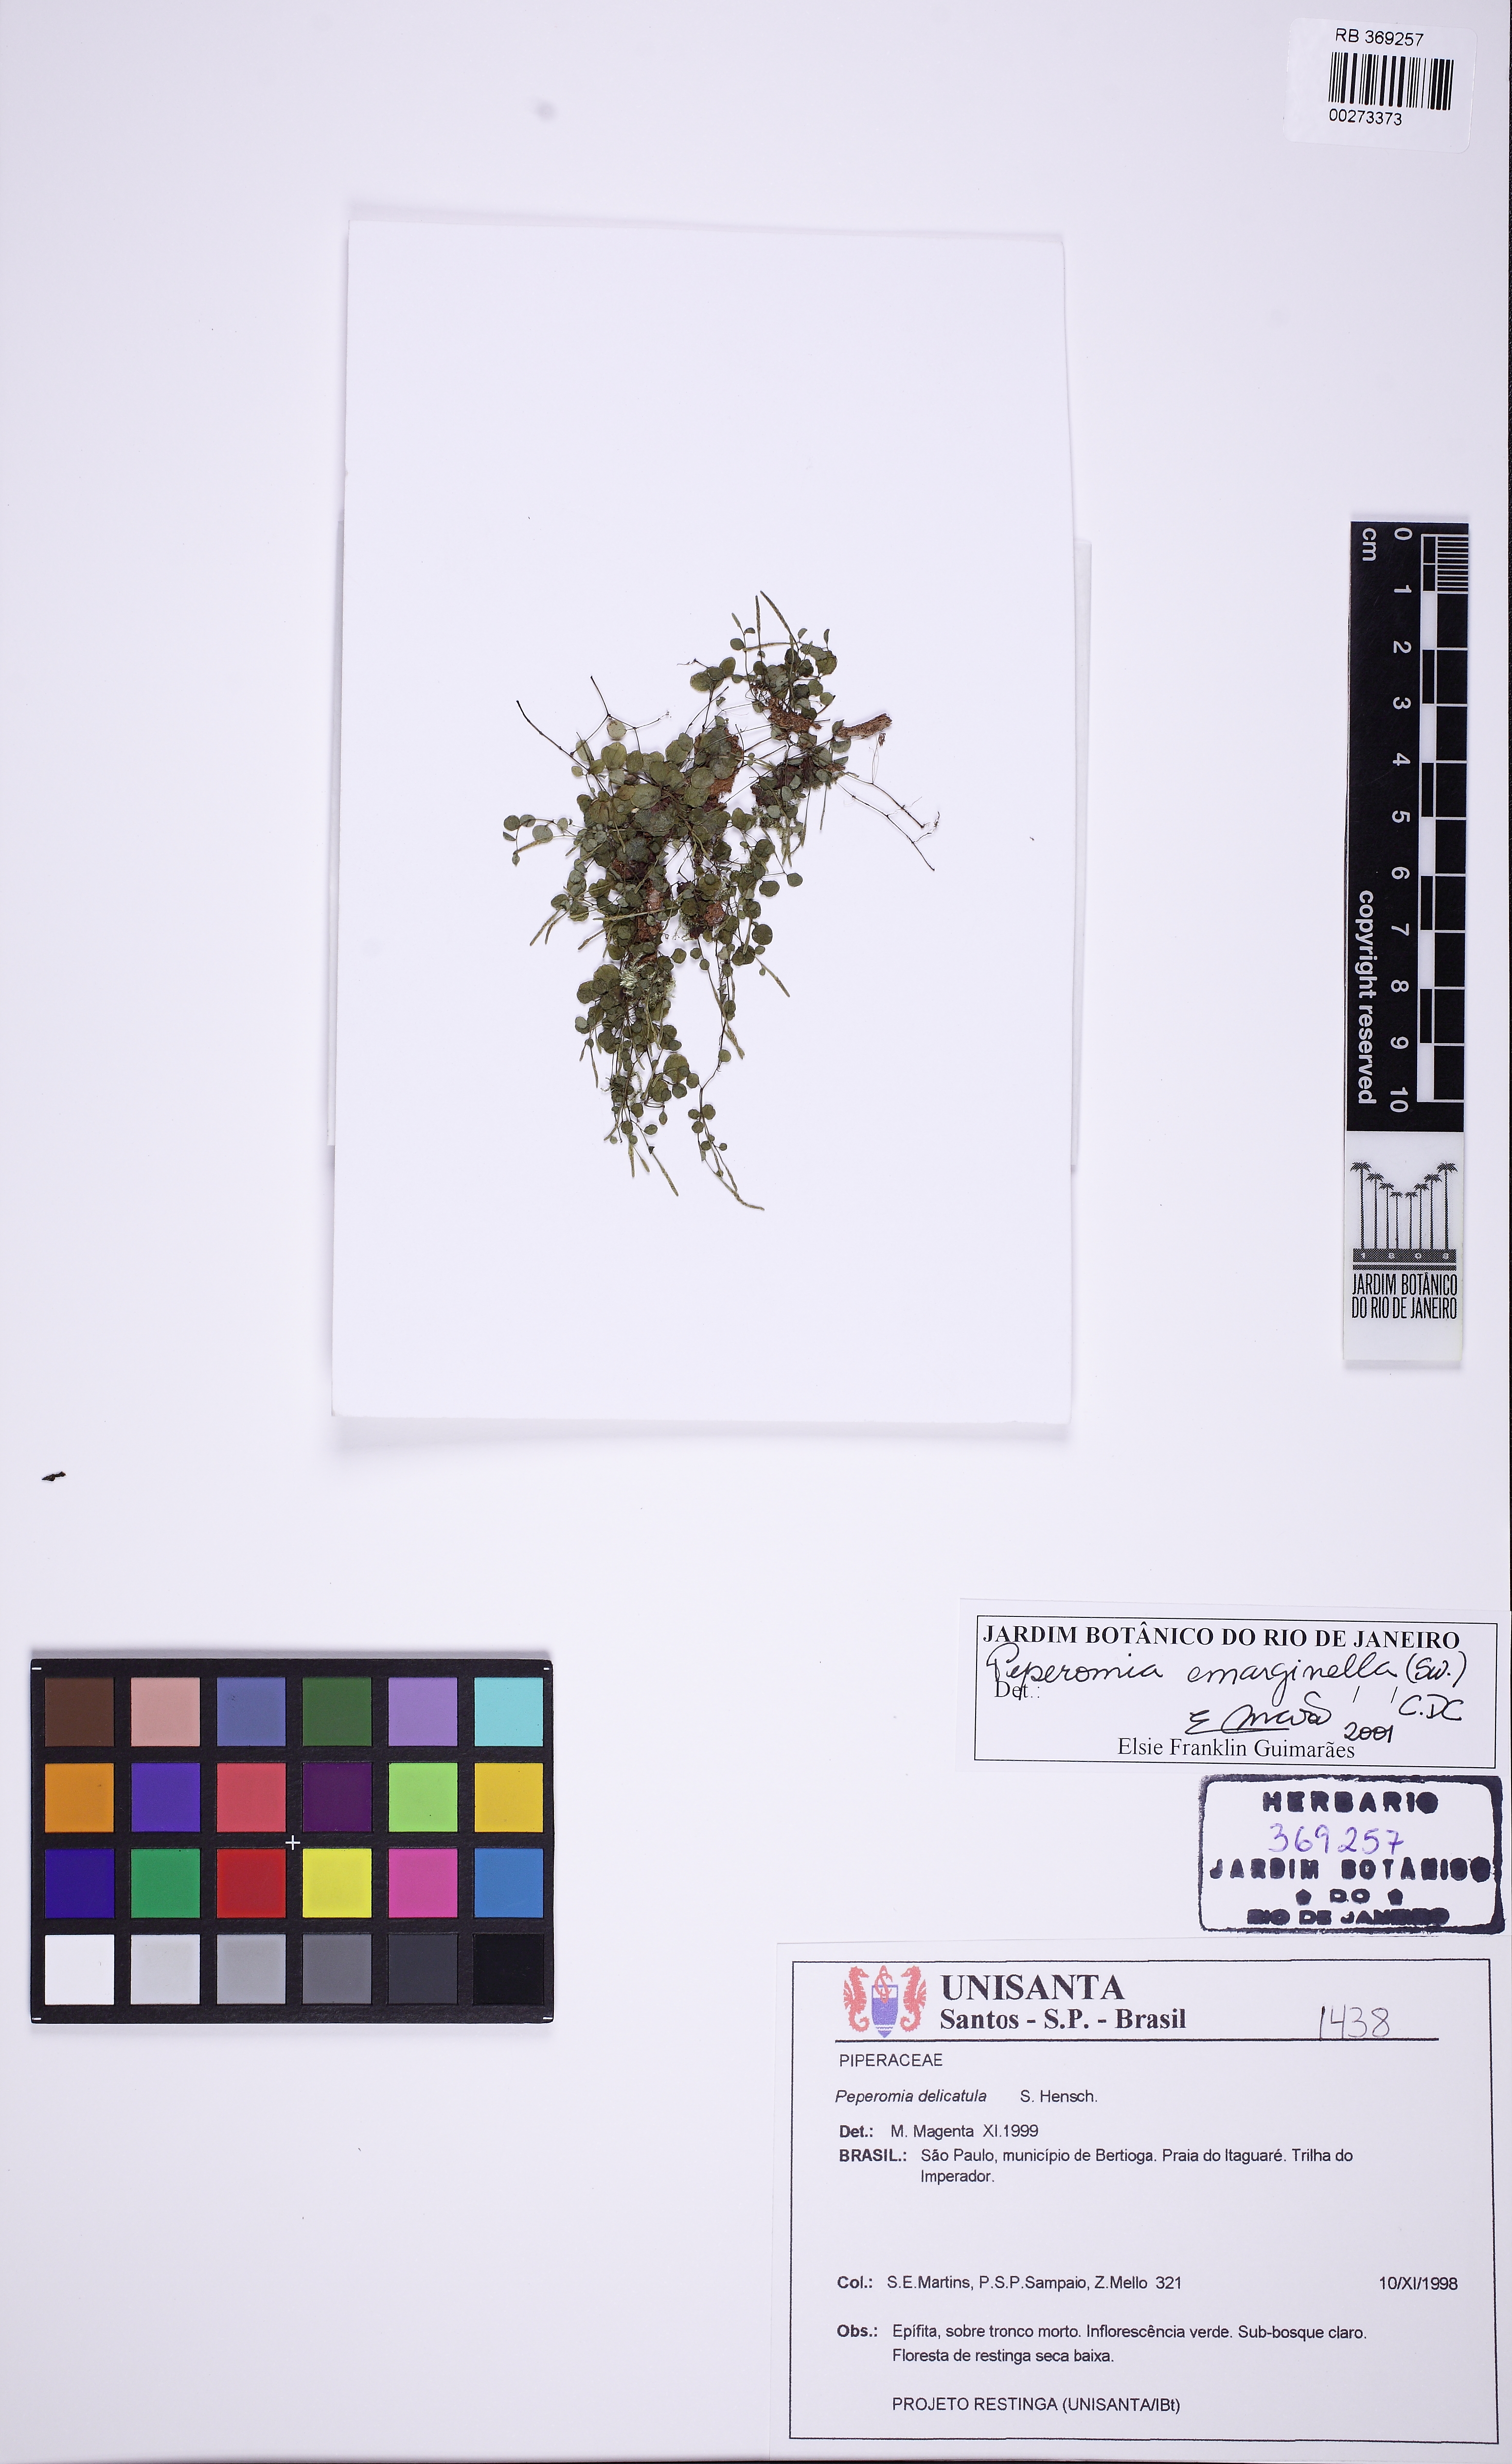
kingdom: Plantae
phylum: Tracheophyta
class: Magnoliopsida
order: Piperales
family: Piperaceae
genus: Peperomia
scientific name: Peperomia emarginella
